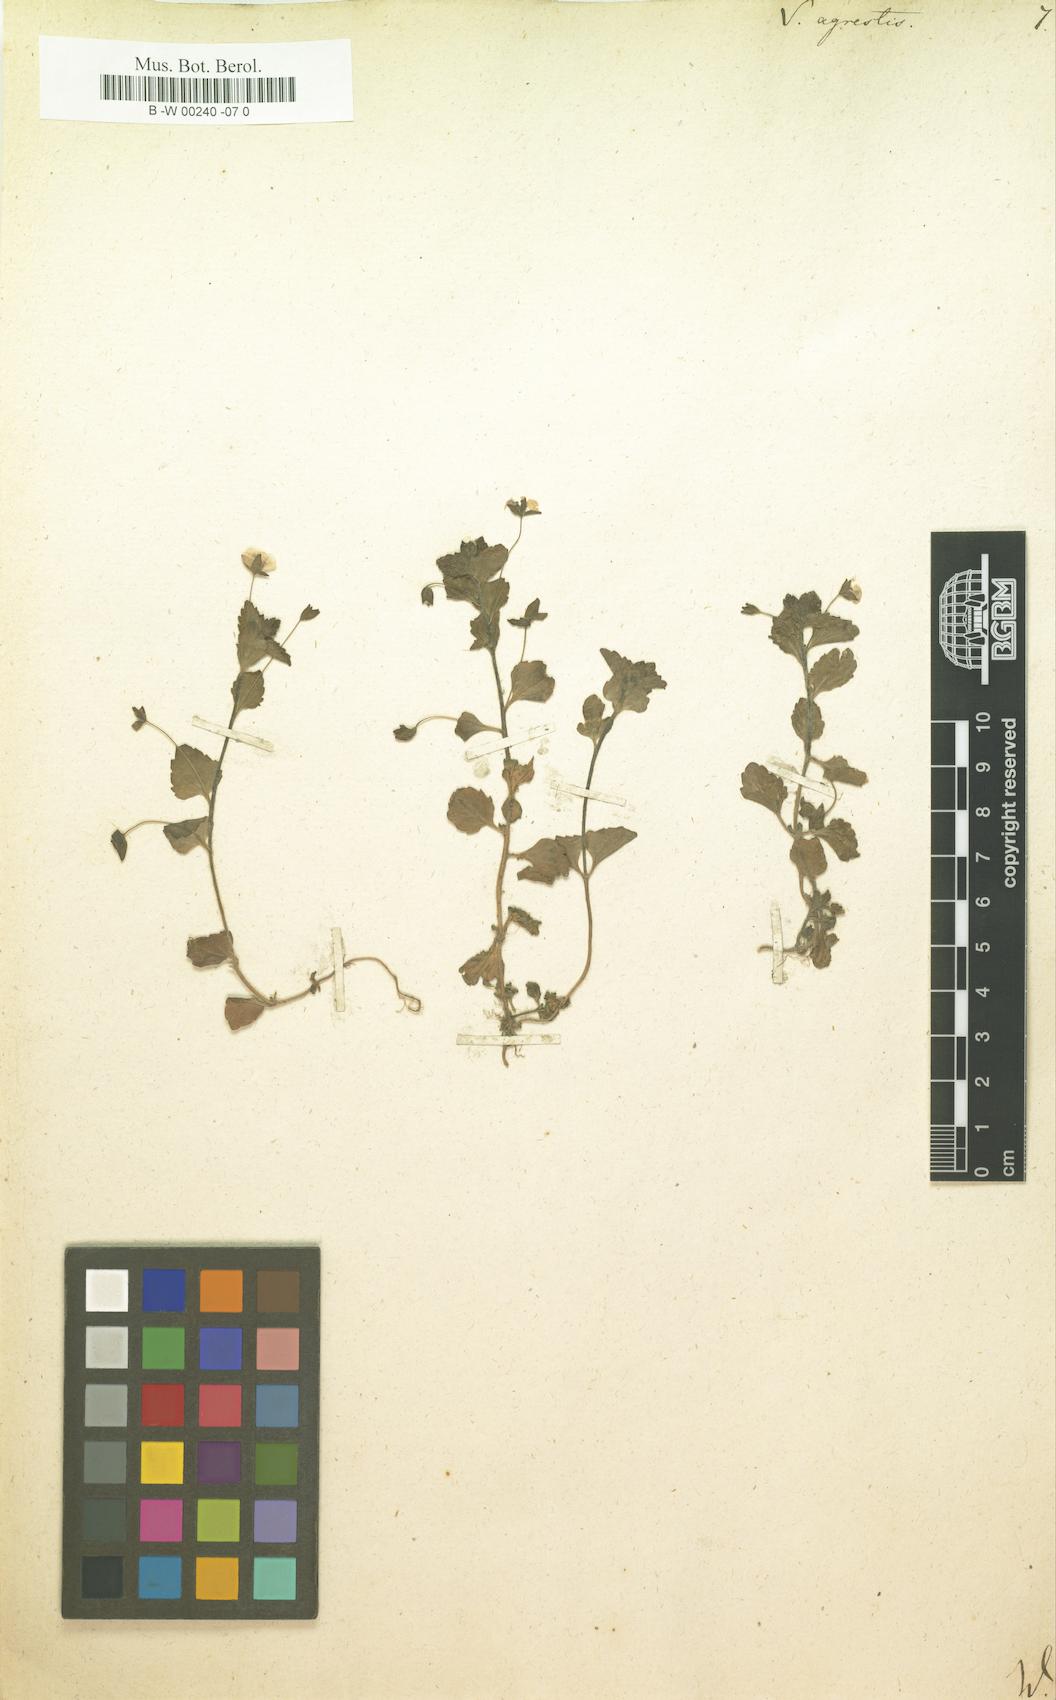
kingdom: Plantae
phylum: Tracheophyta
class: Magnoliopsida
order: Lamiales
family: Plantaginaceae
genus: Veronica
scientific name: Veronica agrestis
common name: Green field-speedwell
